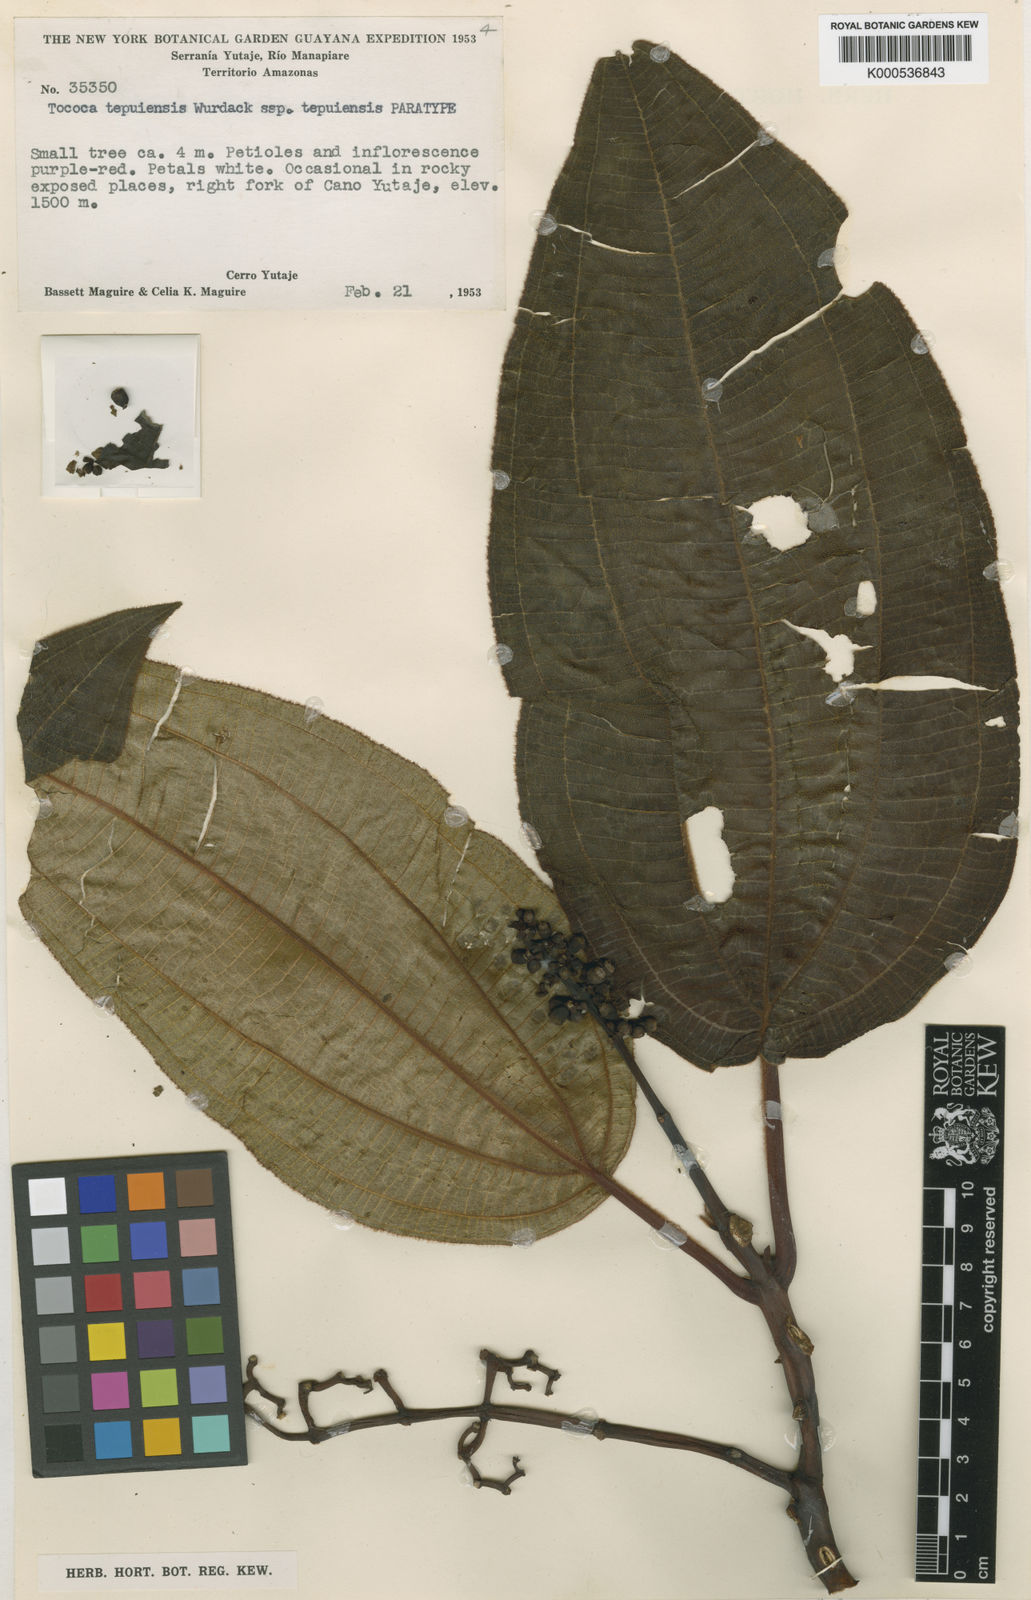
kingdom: Plantae
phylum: Tracheophyta
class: Magnoliopsida
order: Myrtales
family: Melastomataceae
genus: Miconia
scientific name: Miconia tepuiensis
